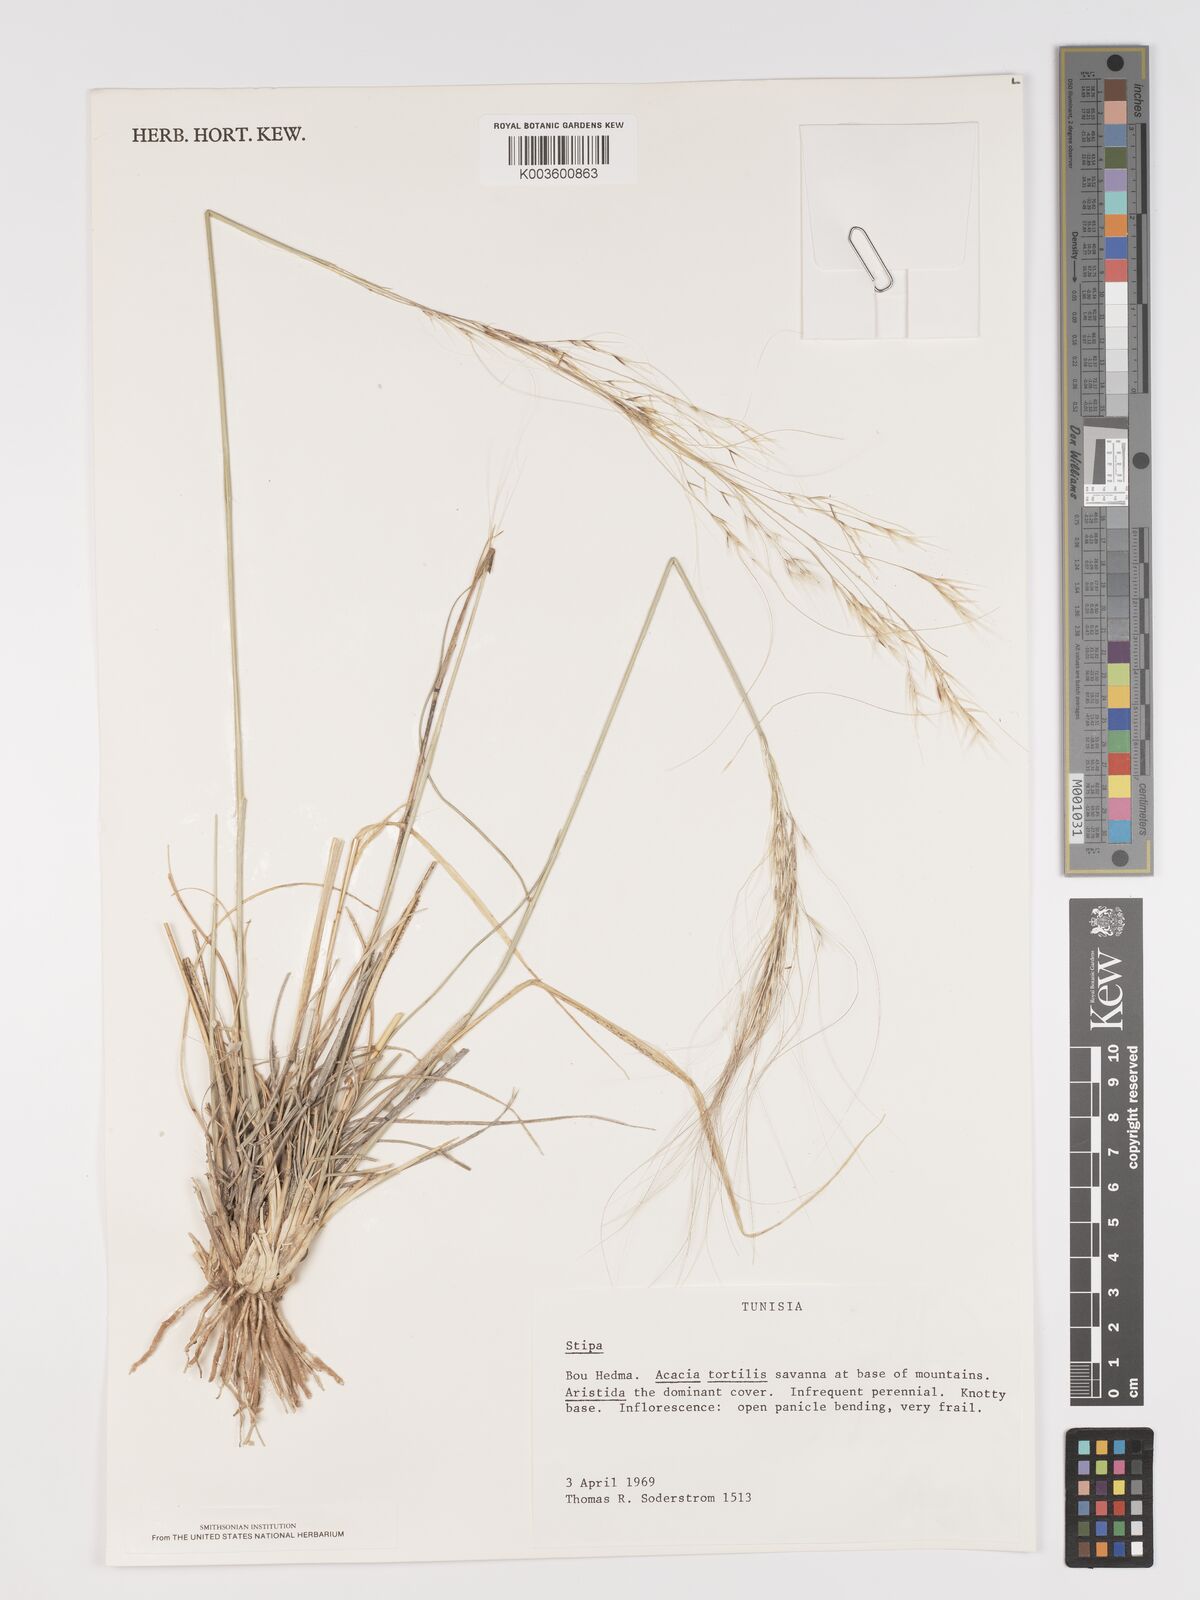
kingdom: Plantae
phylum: Tracheophyta
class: Liliopsida
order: Poales
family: Poaceae
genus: Stipa
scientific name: Stipa holosericea
